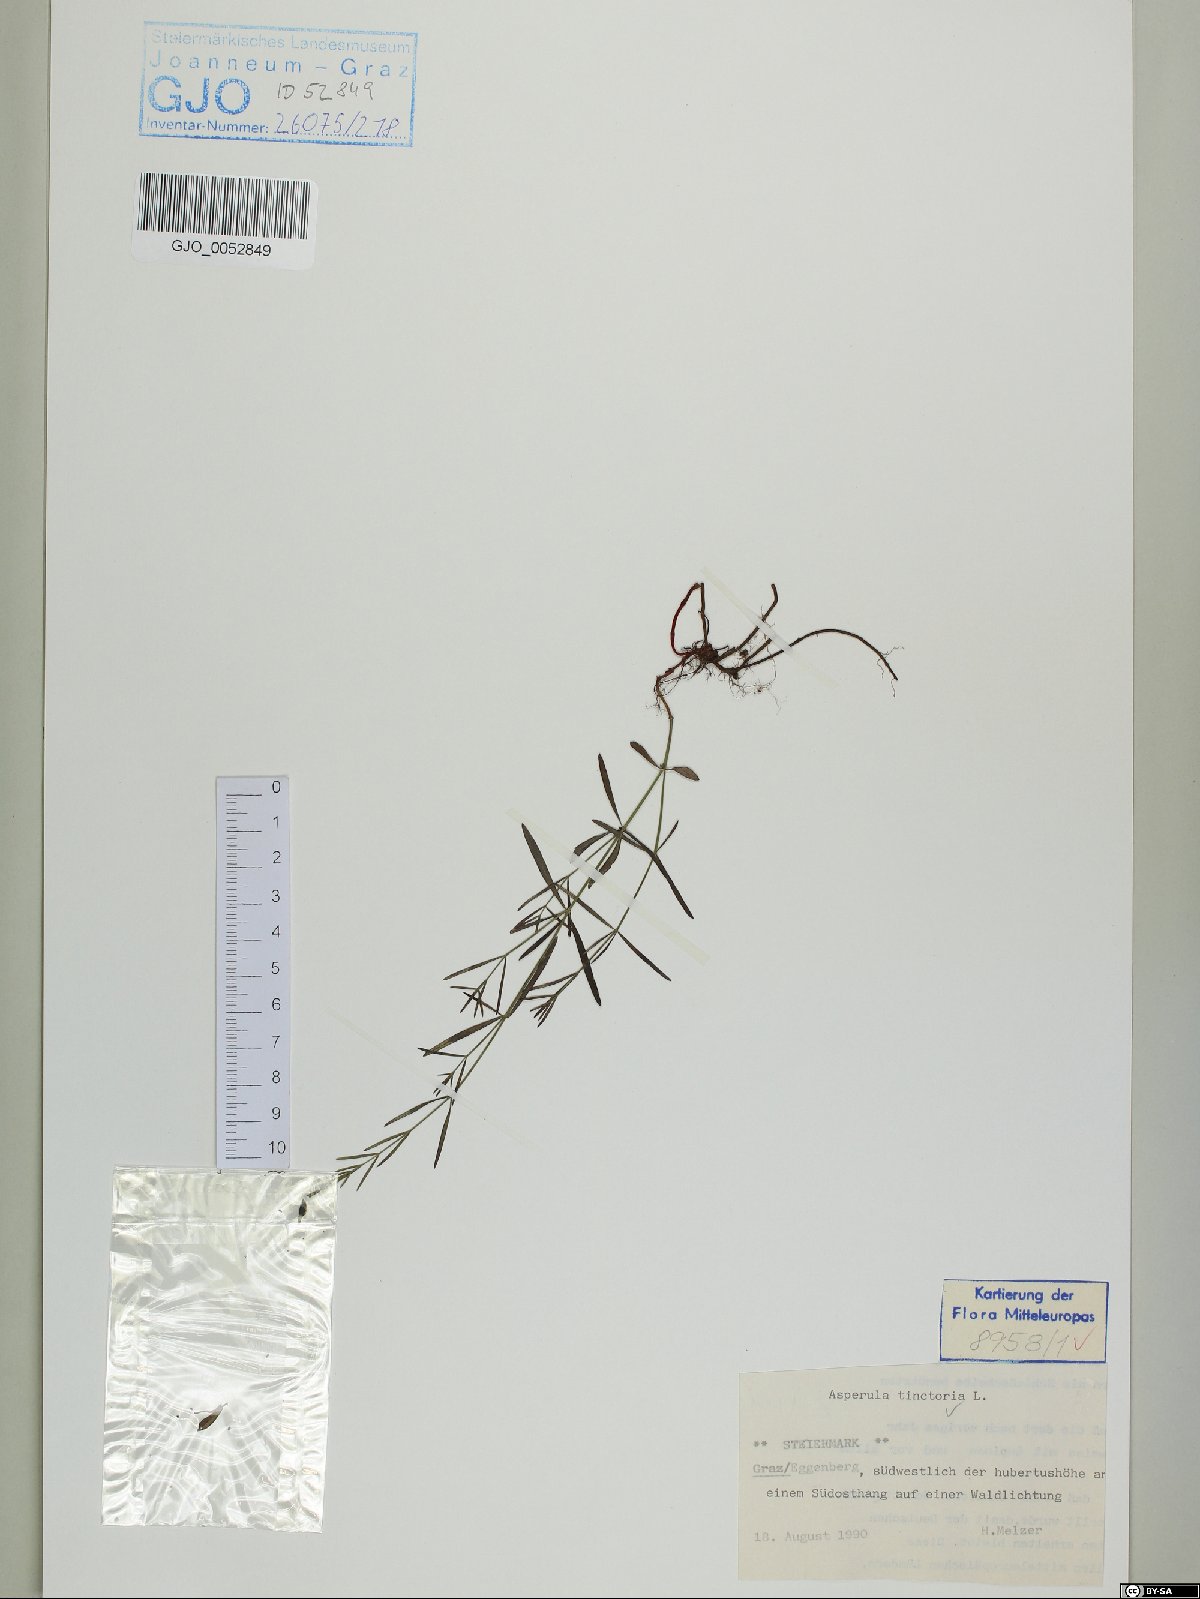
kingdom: Plantae
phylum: Tracheophyta
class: Magnoliopsida
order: Gentianales
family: Rubiaceae
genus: Asperula
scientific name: Asperula tinctoria
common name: Dyer's woodruff
